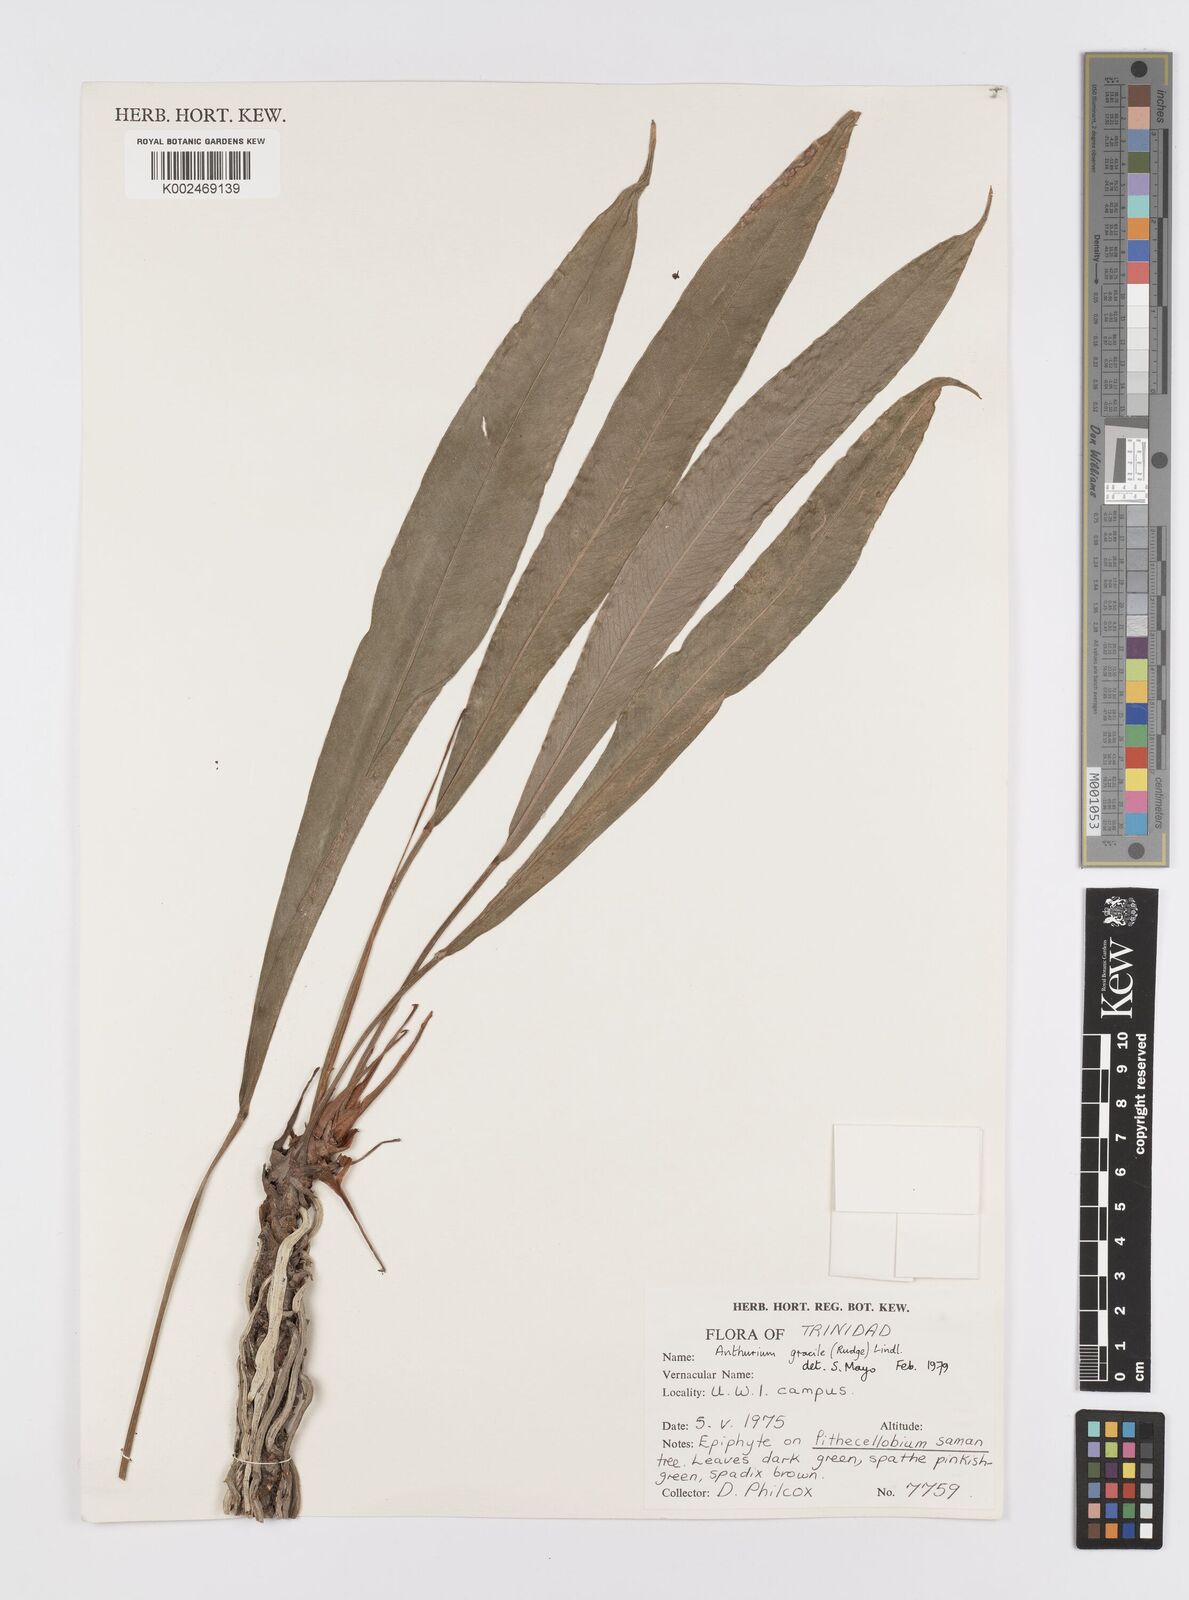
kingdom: Plantae
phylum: Tracheophyta
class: Liliopsida
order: Alismatales
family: Araceae
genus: Anthurium
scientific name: Anthurium gracile
